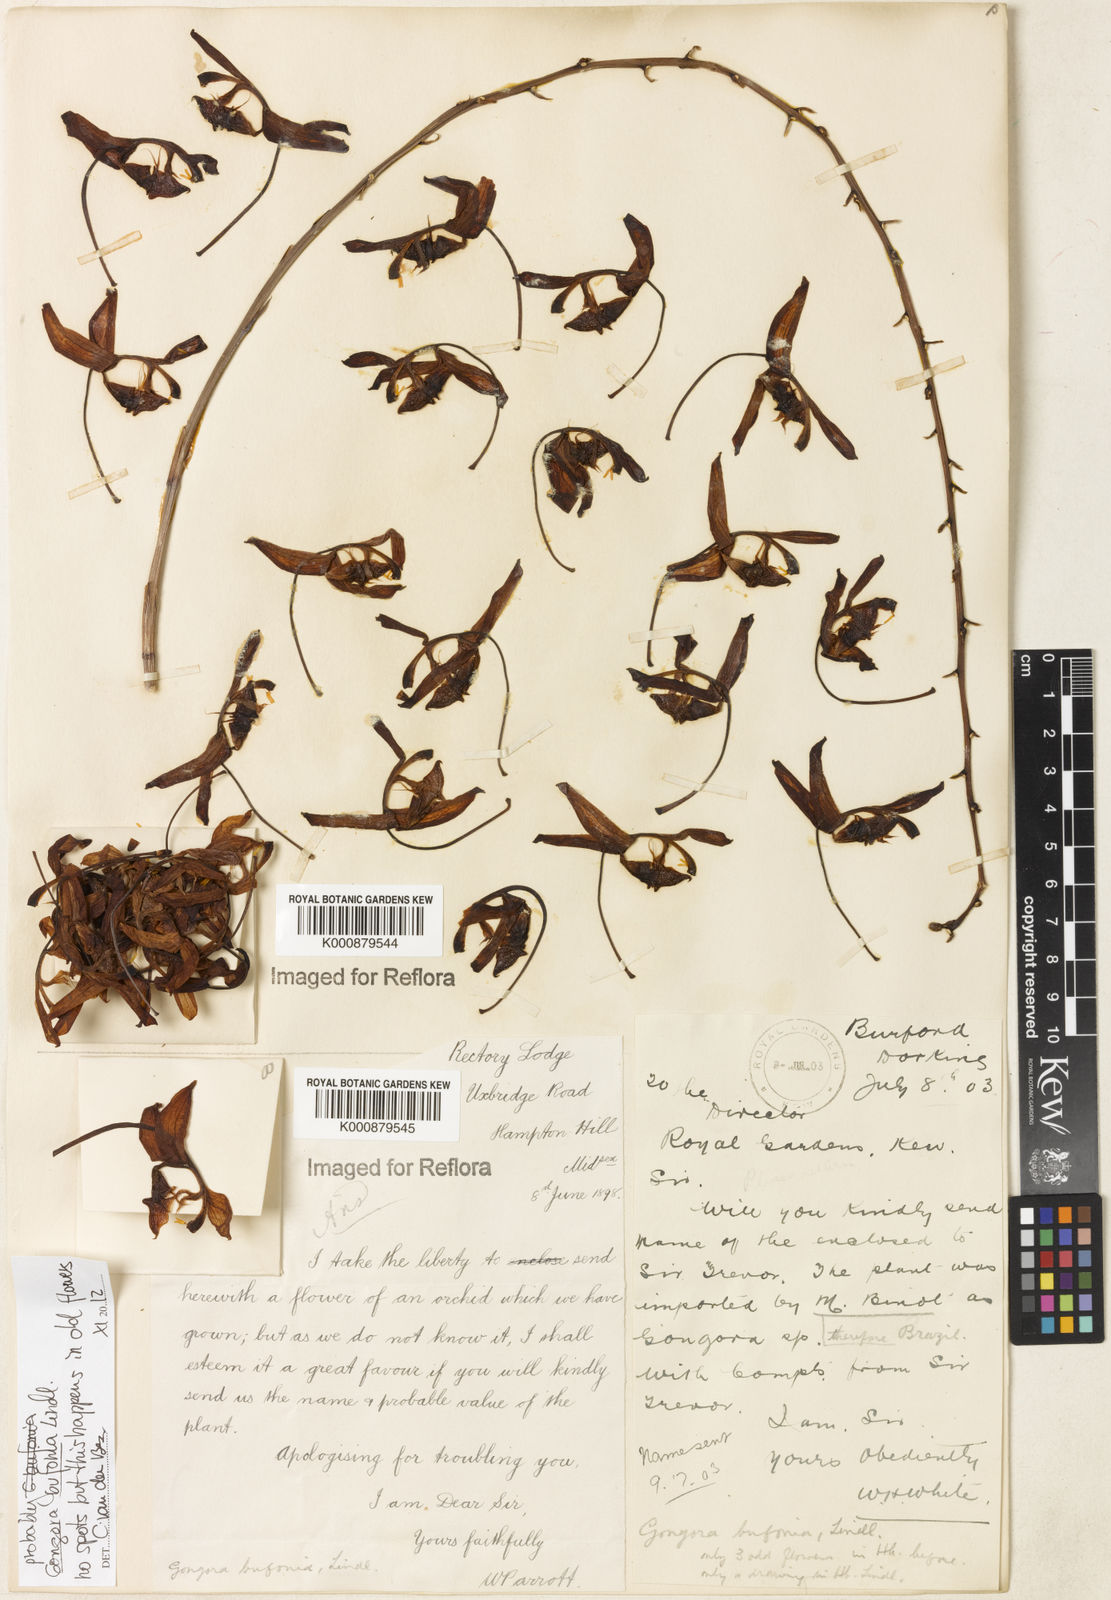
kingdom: Plantae
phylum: Tracheophyta
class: Liliopsida
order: Asparagales
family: Orchidaceae
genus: Gongora
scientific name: Gongora bufonia
